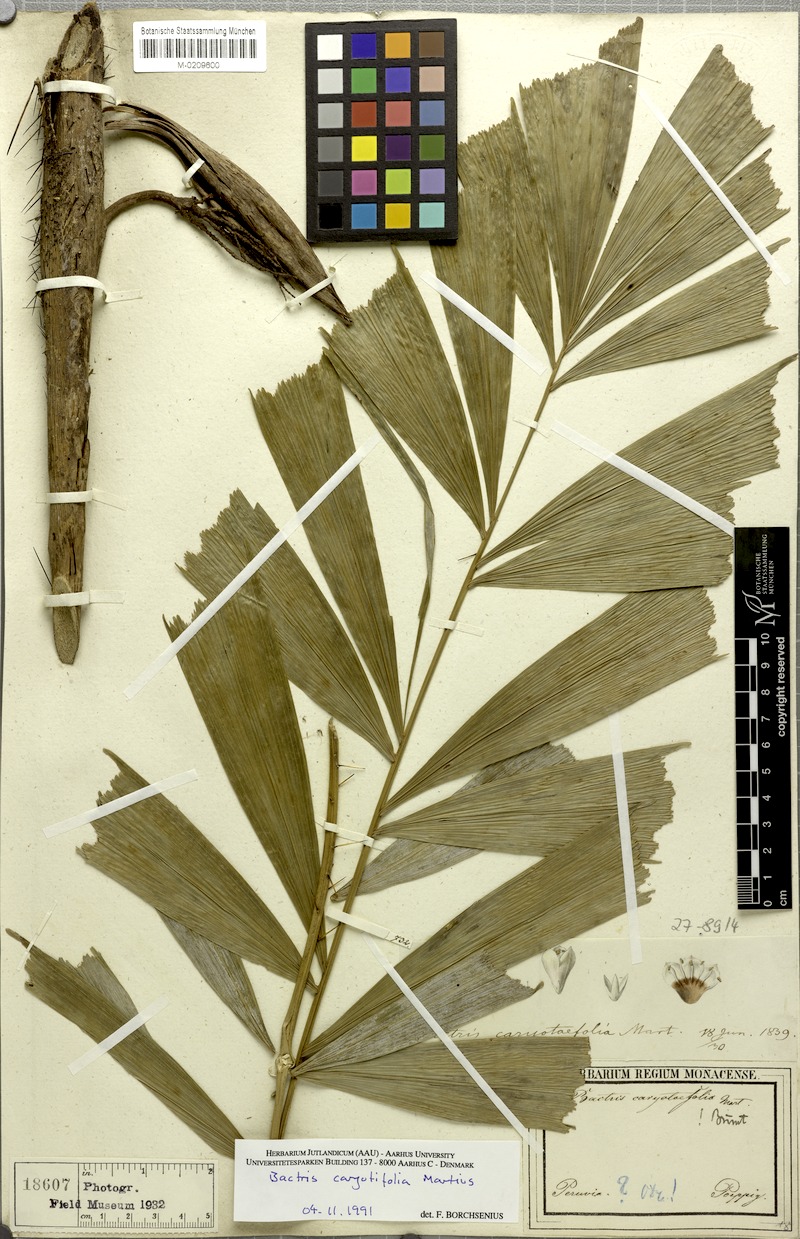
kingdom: Plantae
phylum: Tracheophyta
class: Liliopsida
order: Arecales
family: Arecaceae
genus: Bactris
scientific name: Bactris caryotifolia
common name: Caryota-leaf peach palm
